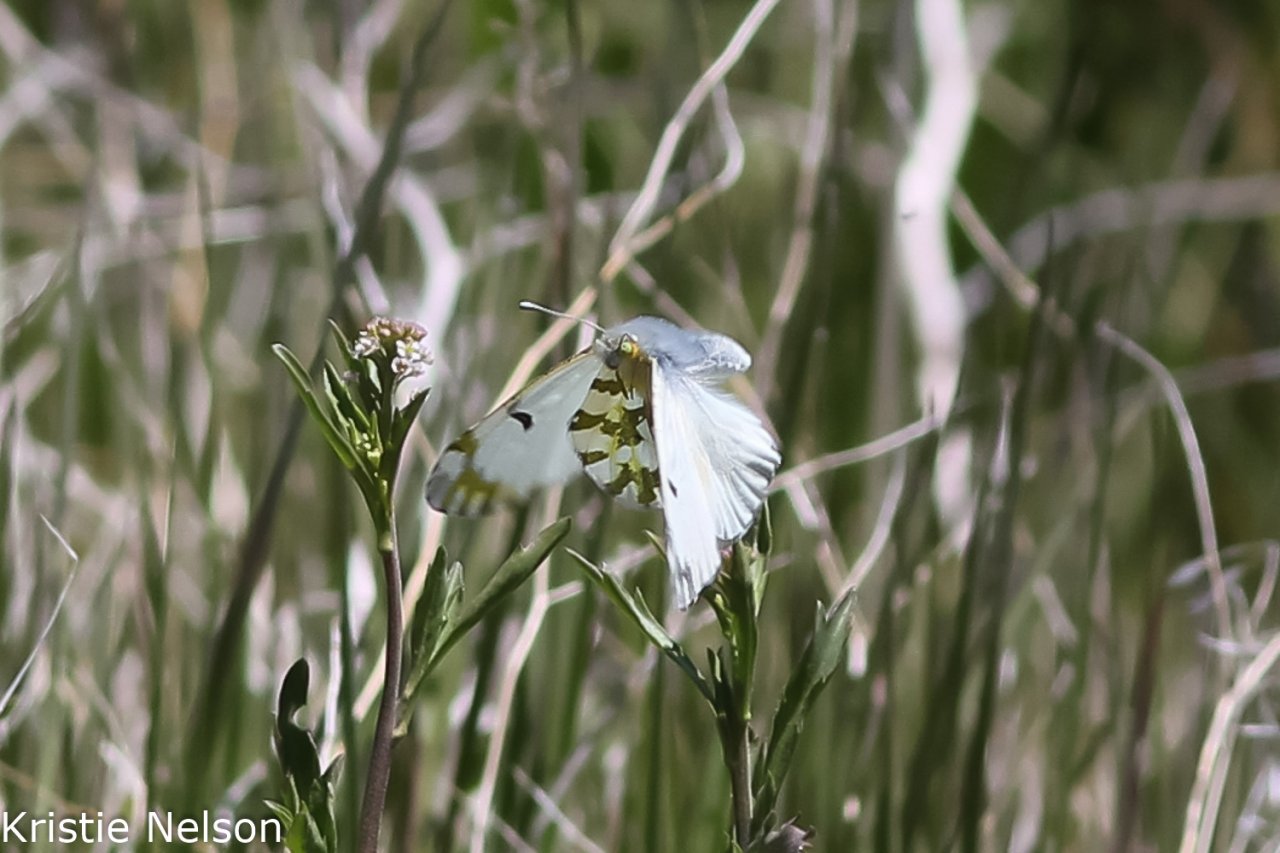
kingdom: Animalia
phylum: Arthropoda
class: Insecta
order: Lepidoptera
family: Pieridae
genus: Euchloe
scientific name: Euchloe ausonides
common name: Large Marble
